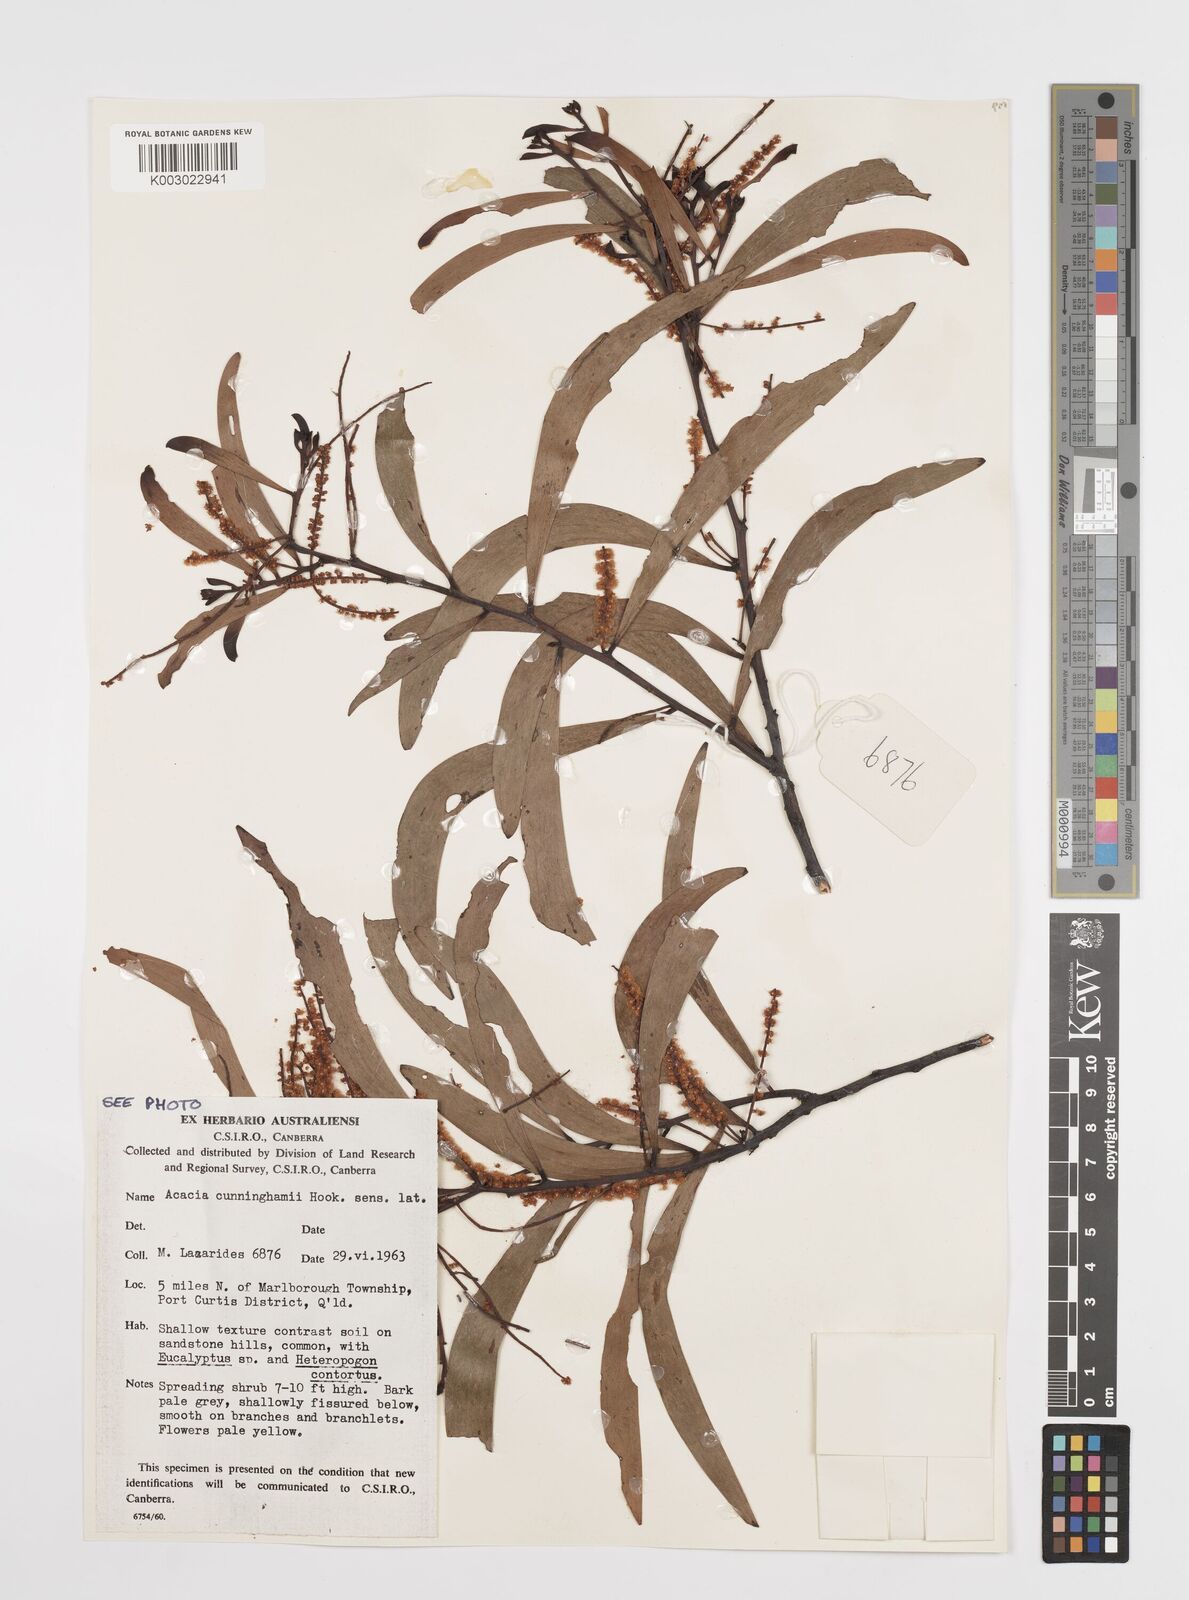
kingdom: Plantae
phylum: Tracheophyta
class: Magnoliopsida
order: Fabales
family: Fabaceae
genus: Acacia
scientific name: Acacia longispicata
